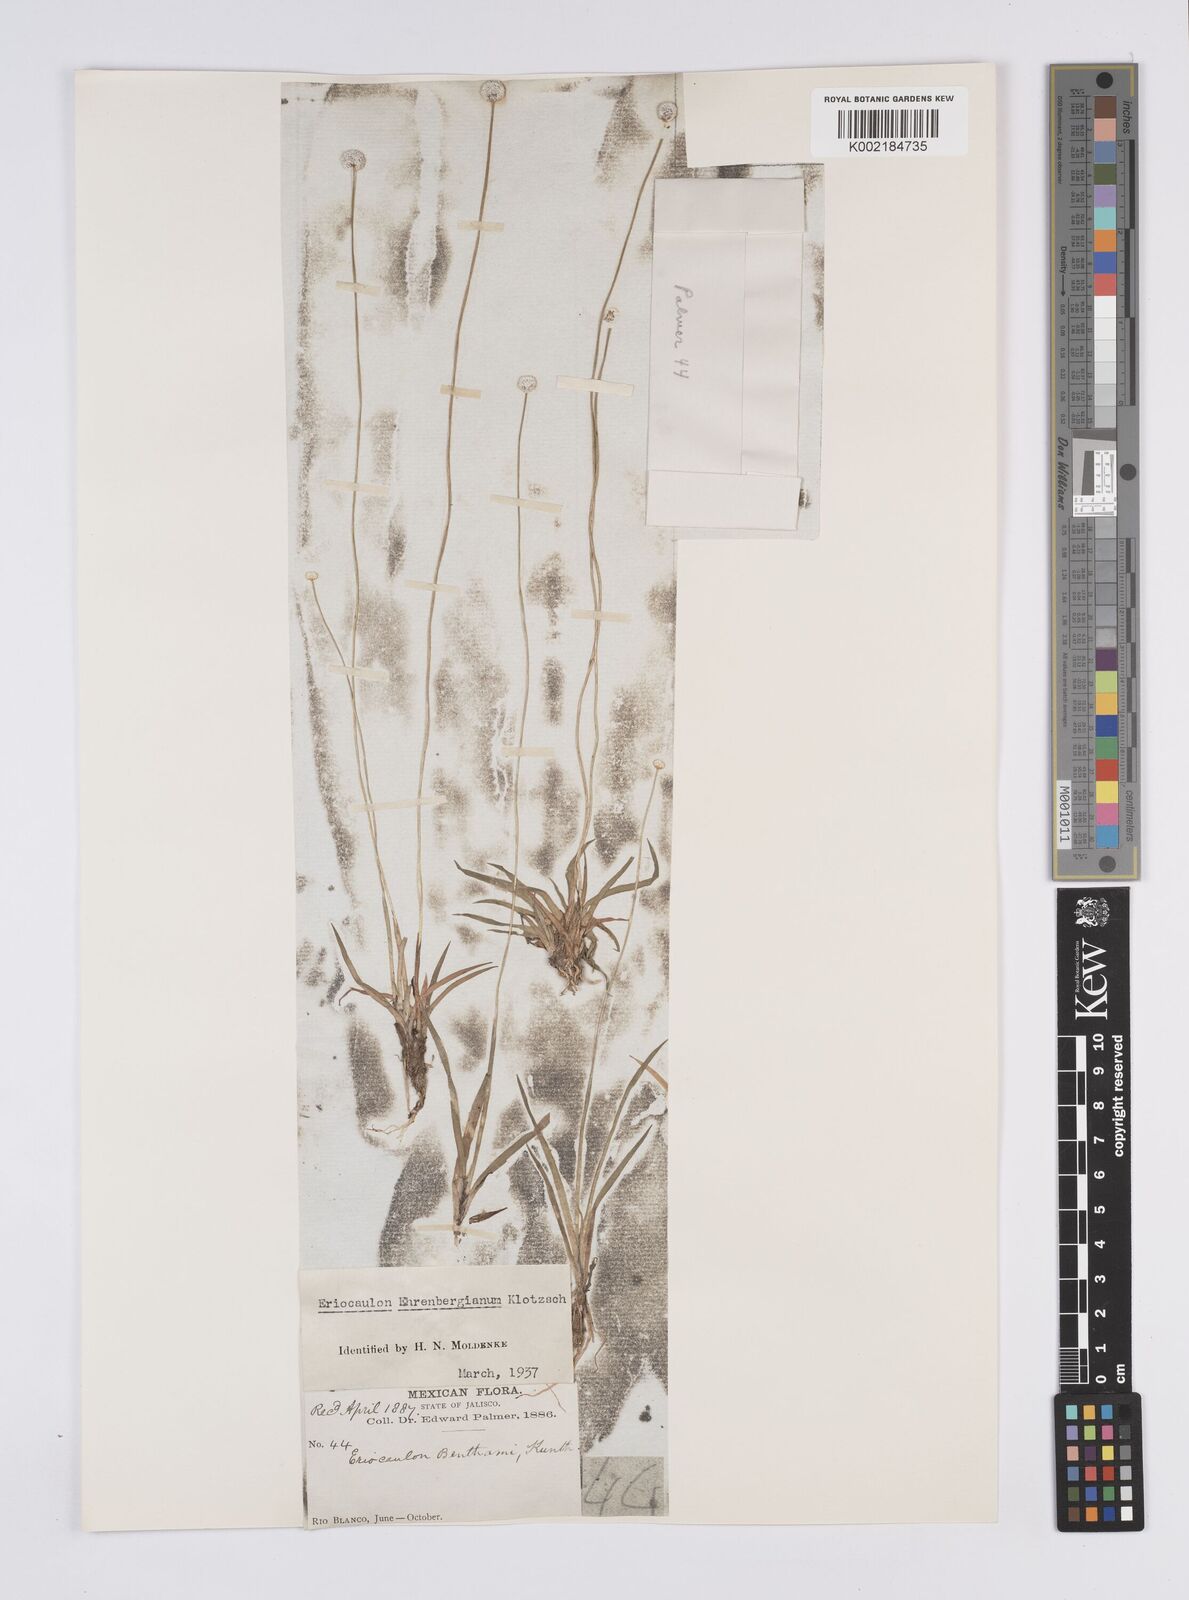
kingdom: Plantae
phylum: Tracheophyta
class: Liliopsida
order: Poales
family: Eriocaulaceae
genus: Eriocaulon
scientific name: Eriocaulon ehrenbergianum
